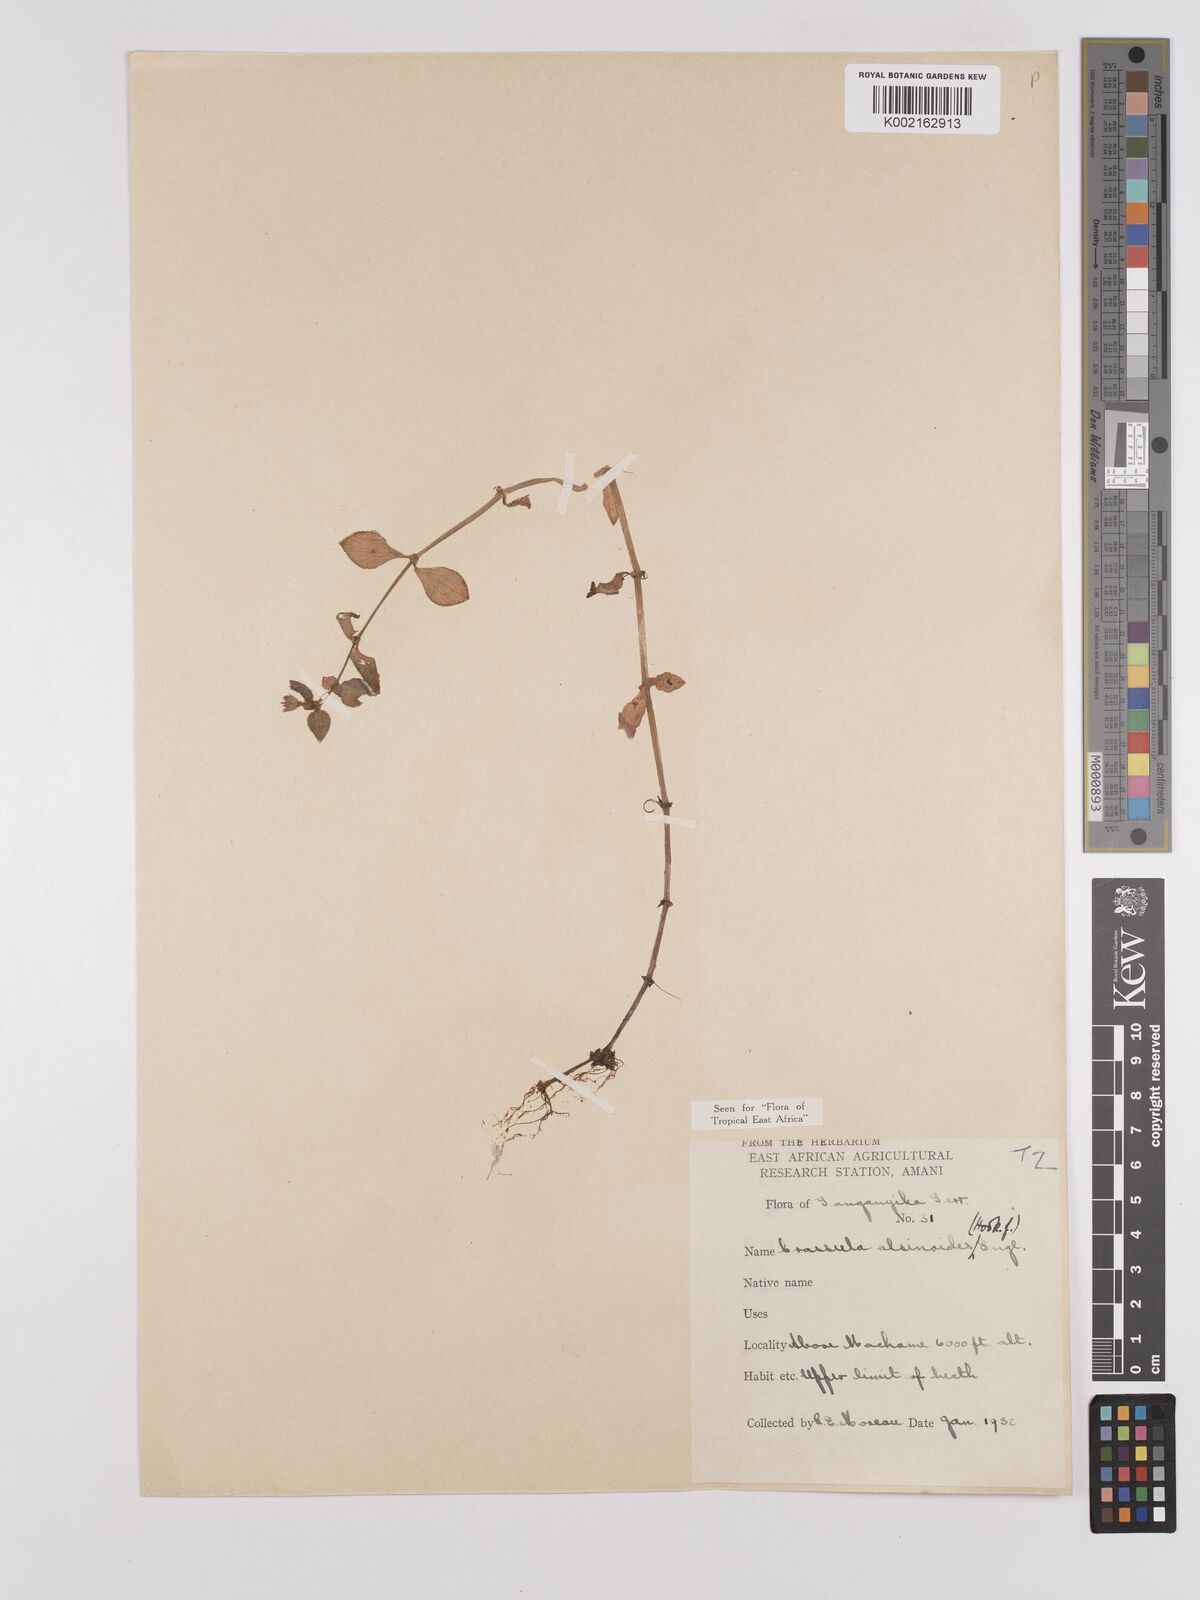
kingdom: Plantae
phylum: Tracheophyta
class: Magnoliopsida
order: Saxifragales
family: Crassulaceae
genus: Crassula
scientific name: Crassula alsinoides
